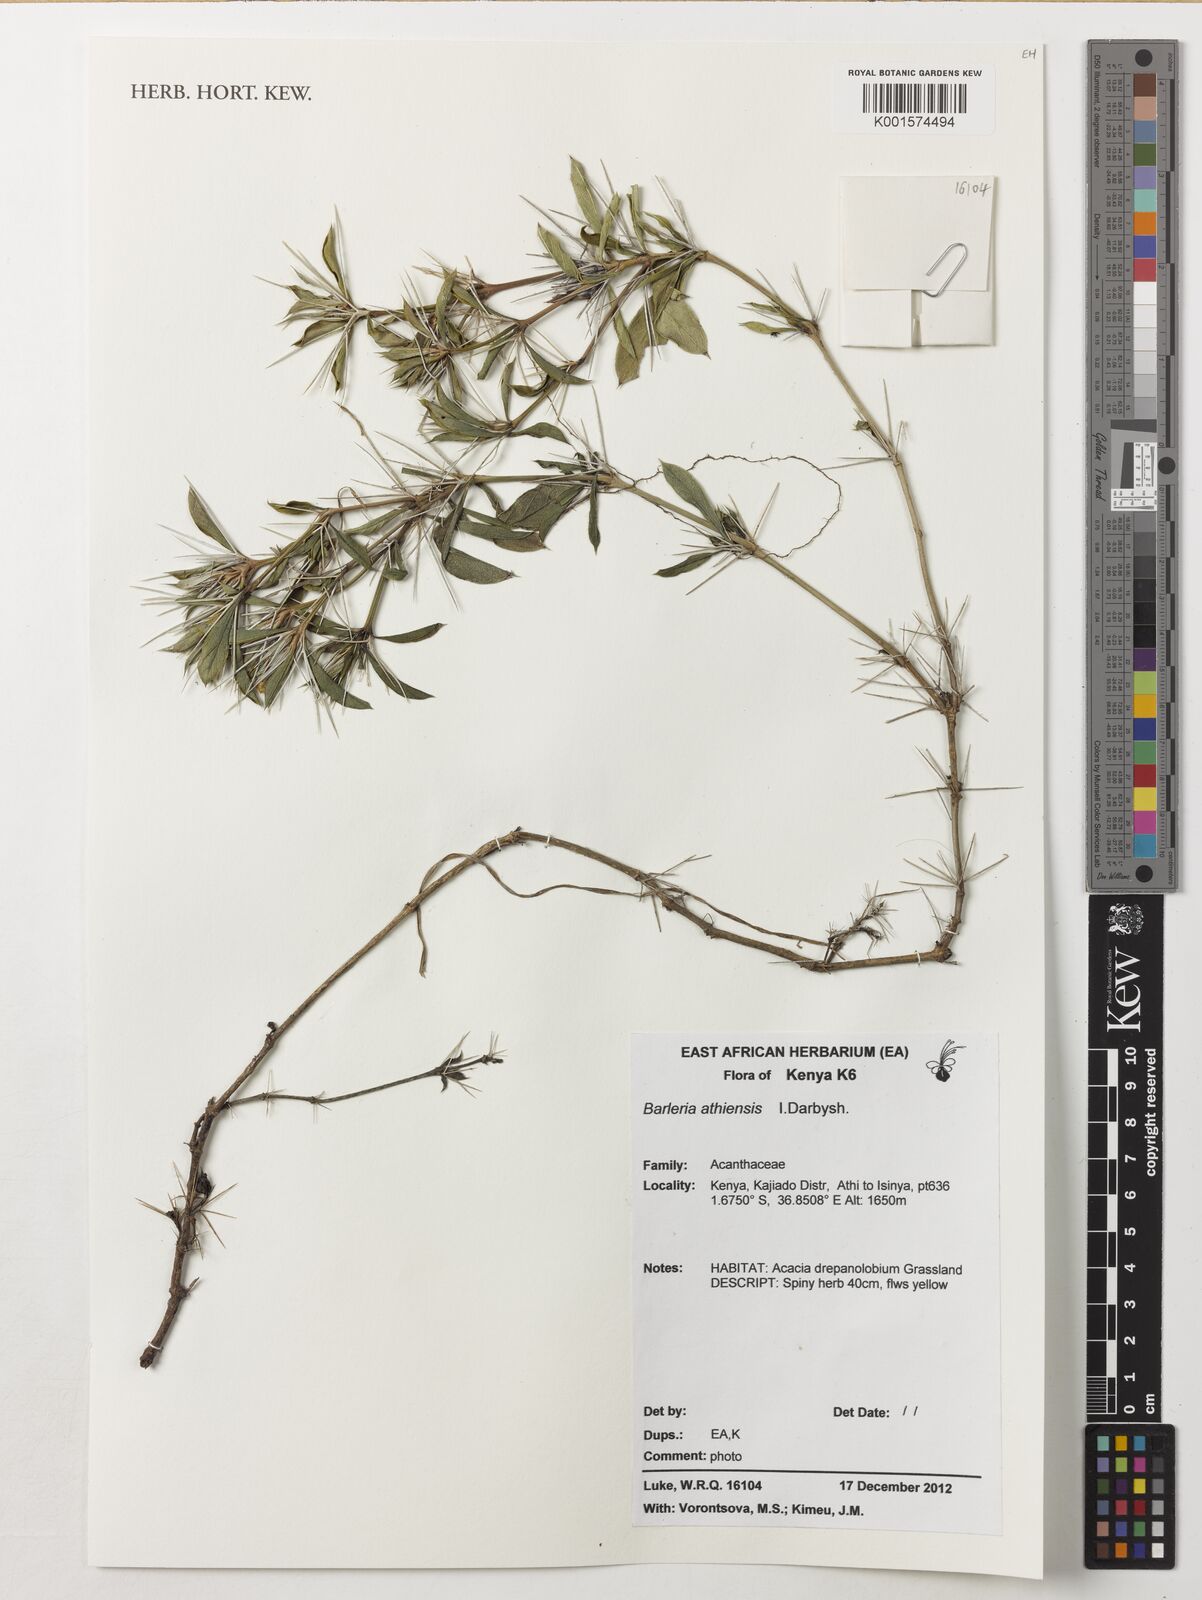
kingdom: Plantae
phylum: Tracheophyta
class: Magnoliopsida
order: Lamiales
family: Acanthaceae
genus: Barleria
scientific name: Barleria athiensis
